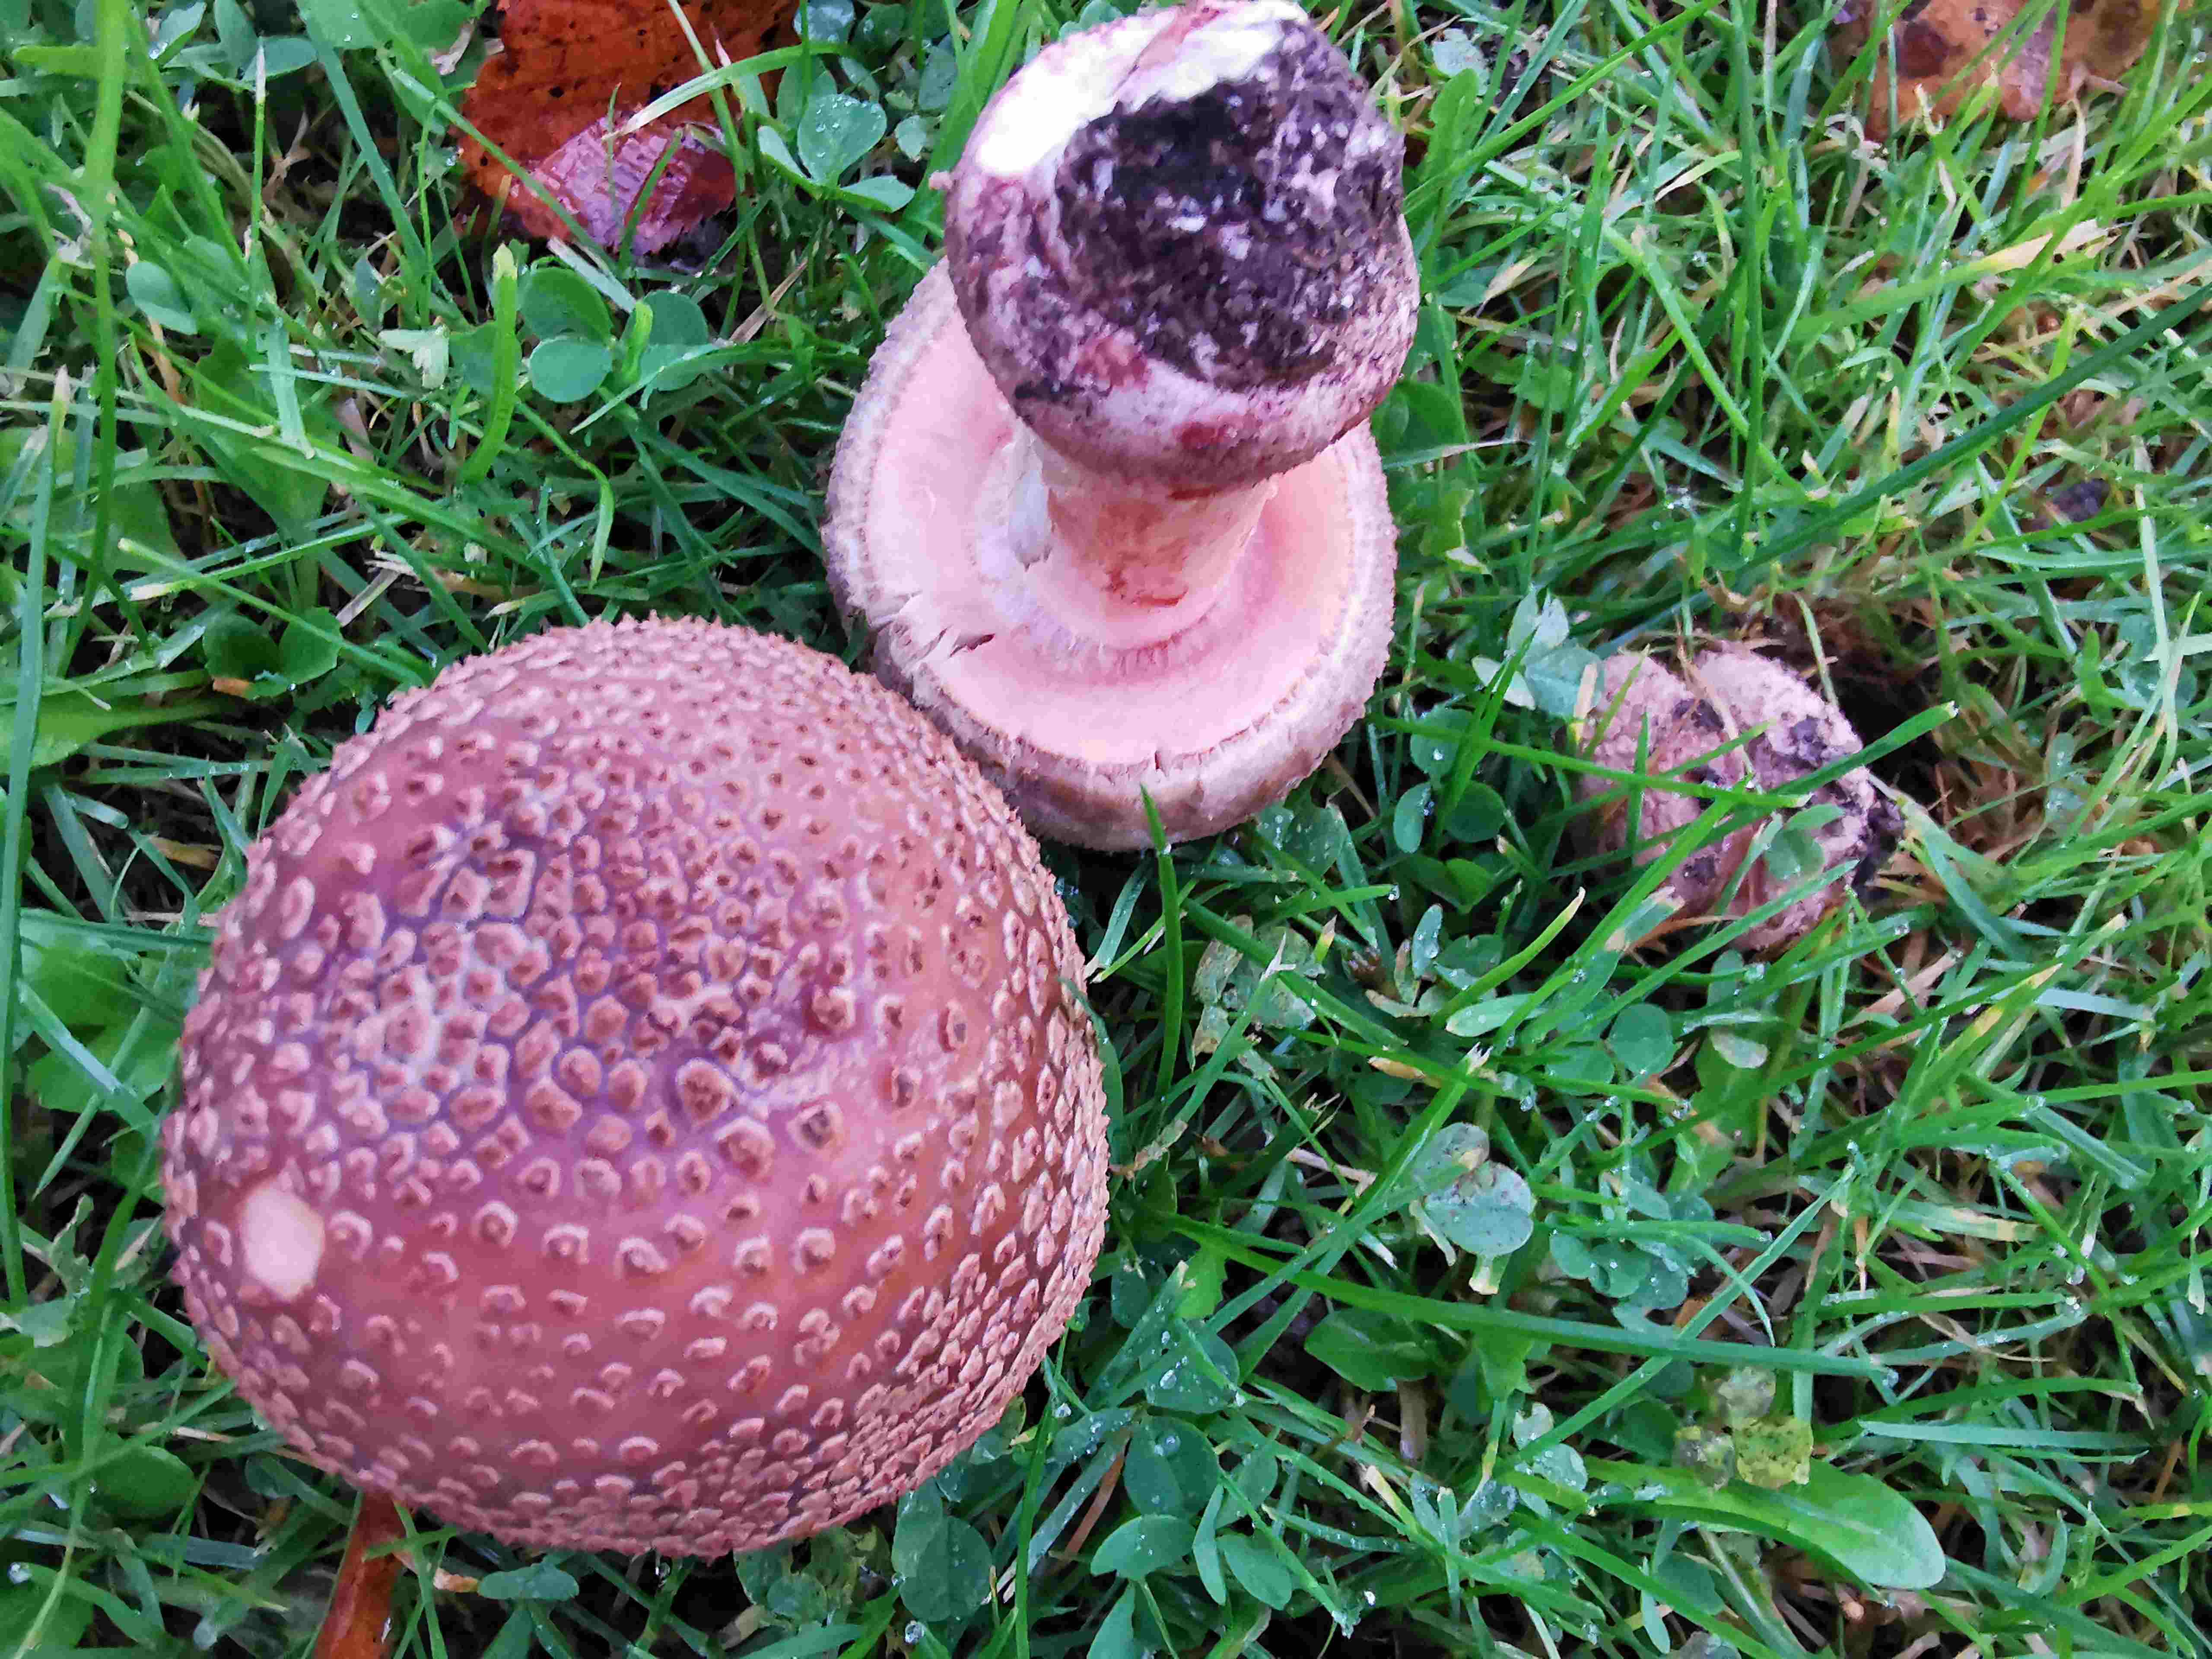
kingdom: Fungi
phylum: Basidiomycota
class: Agaricomycetes
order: Agaricales
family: Amanitaceae
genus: Amanita
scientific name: Amanita rubescens
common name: rødmende fluesvamp
